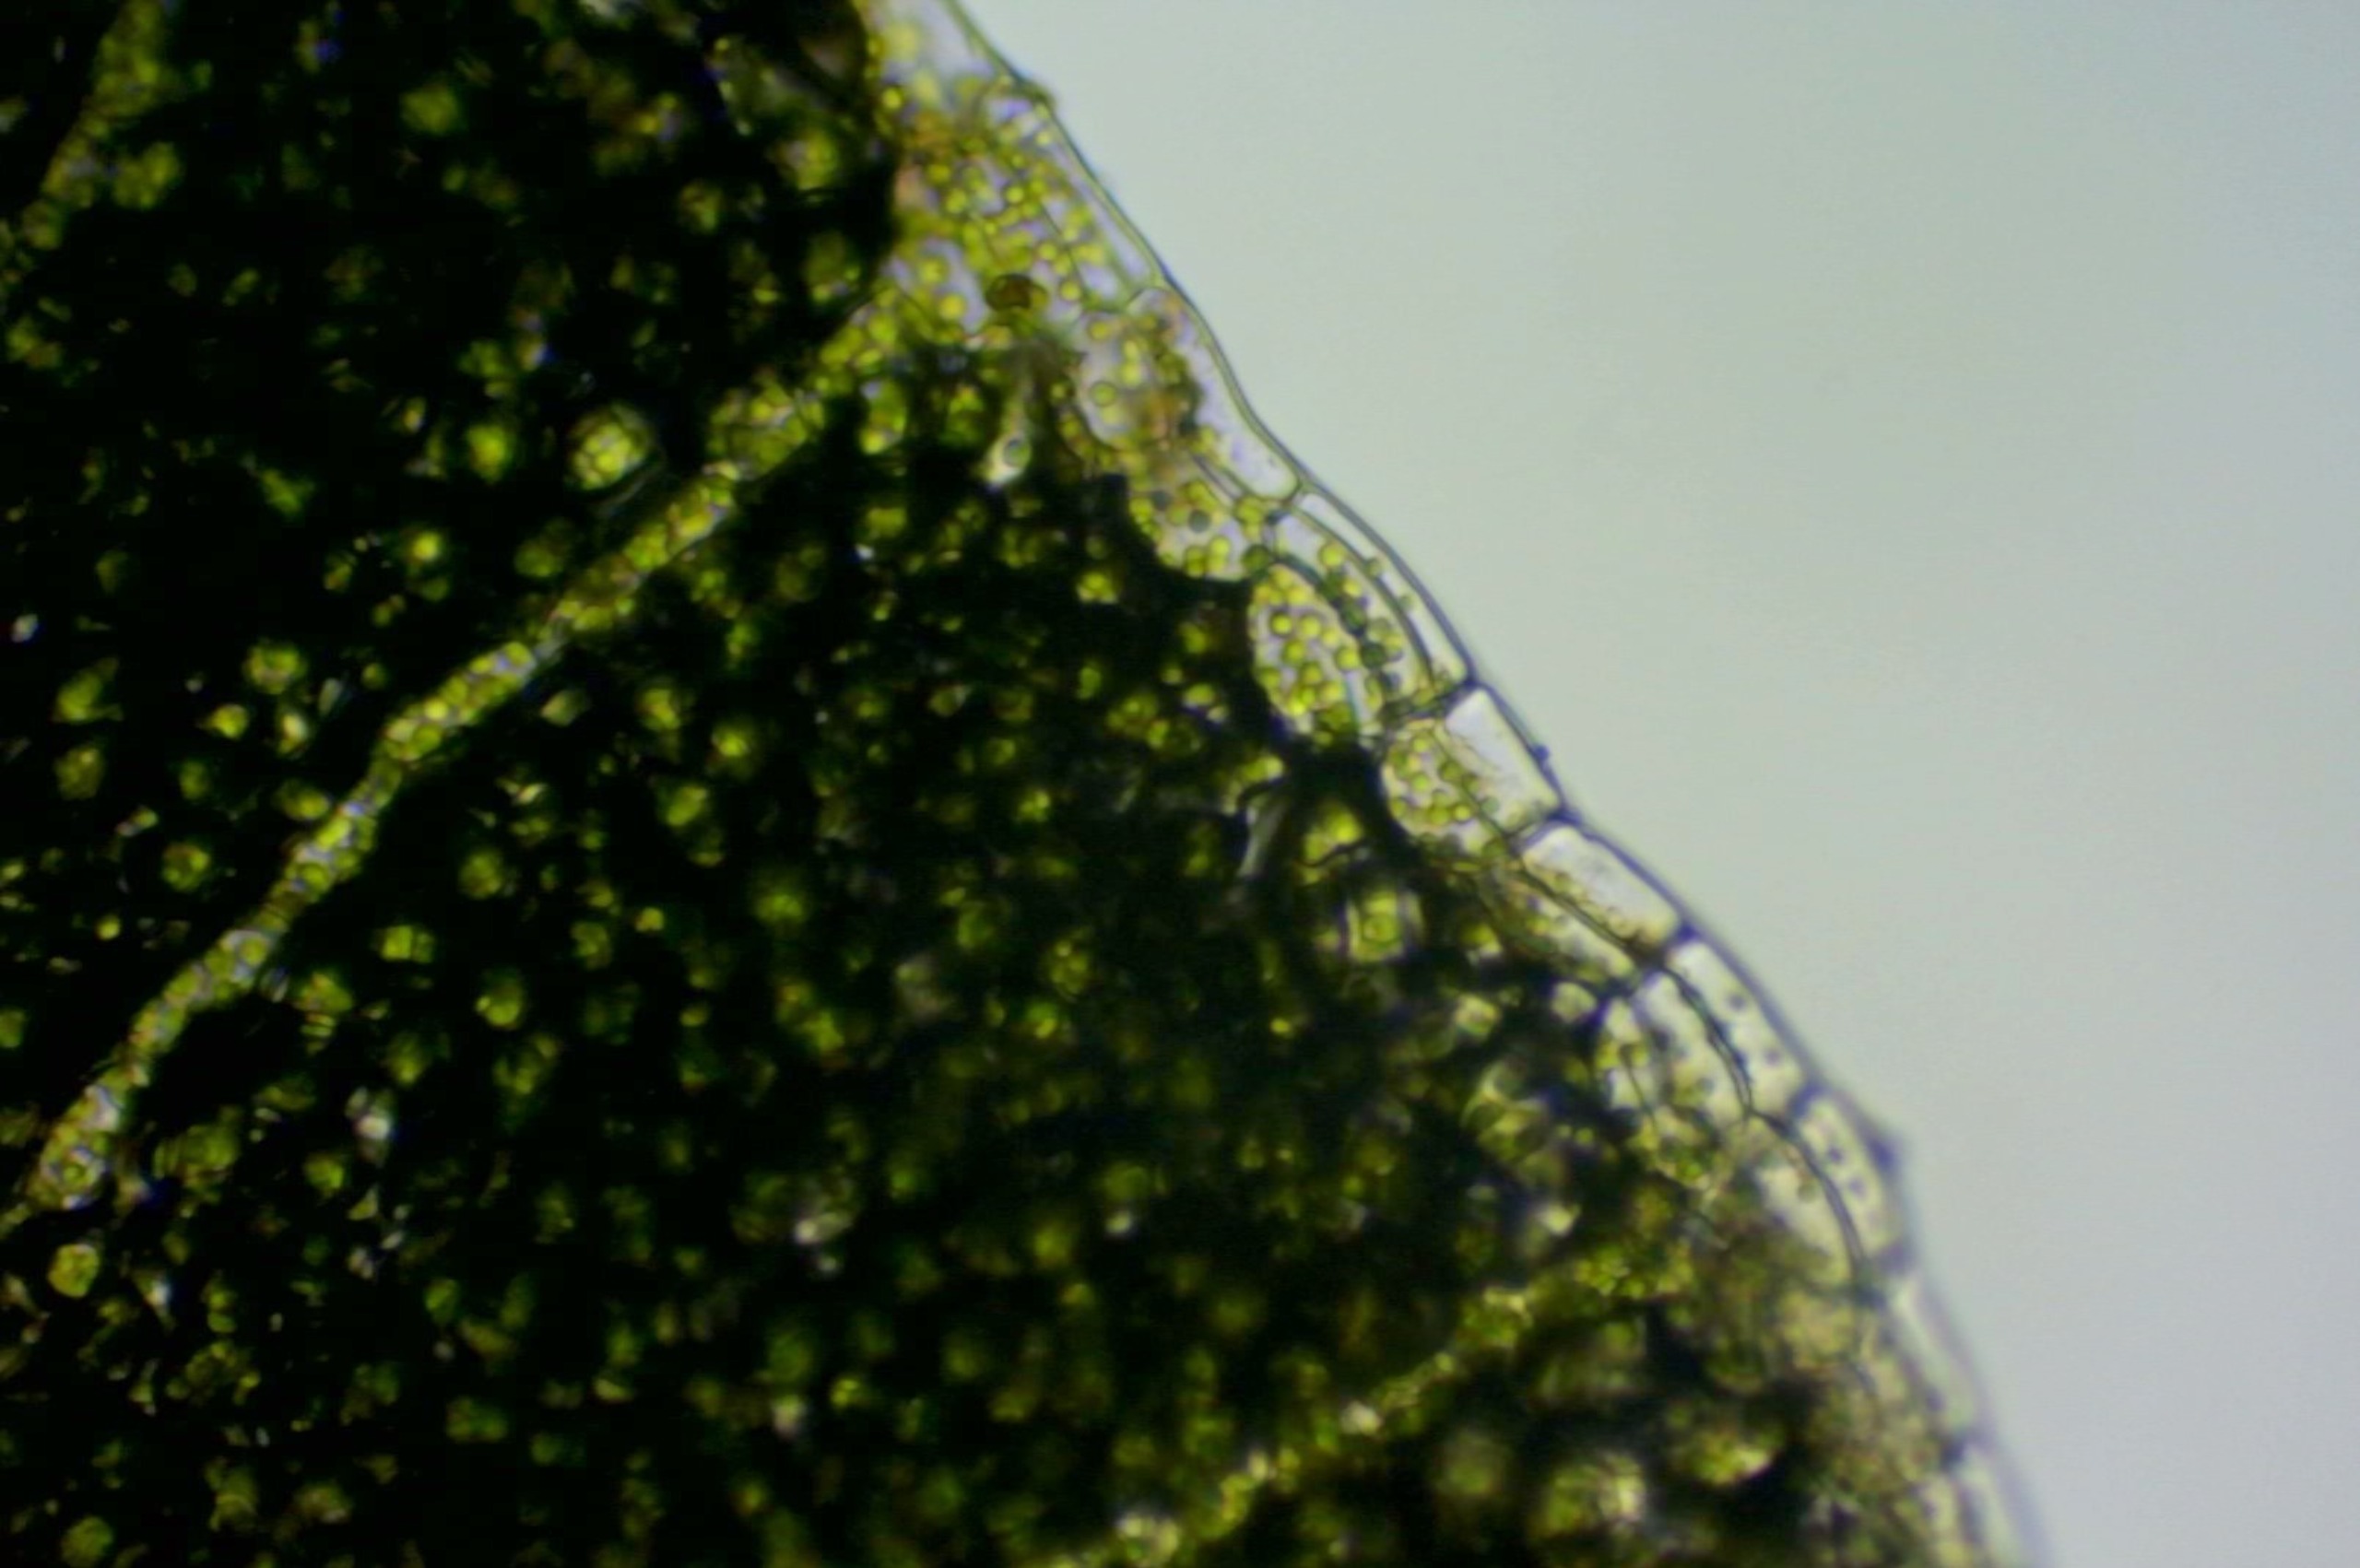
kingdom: Plantae
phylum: Marchantiophyta
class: Marchantiopsida
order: Marchantiales
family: Conocephalaceae
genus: Conocephalum
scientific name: Conocephalum conicum
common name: Glat krokodillemos
